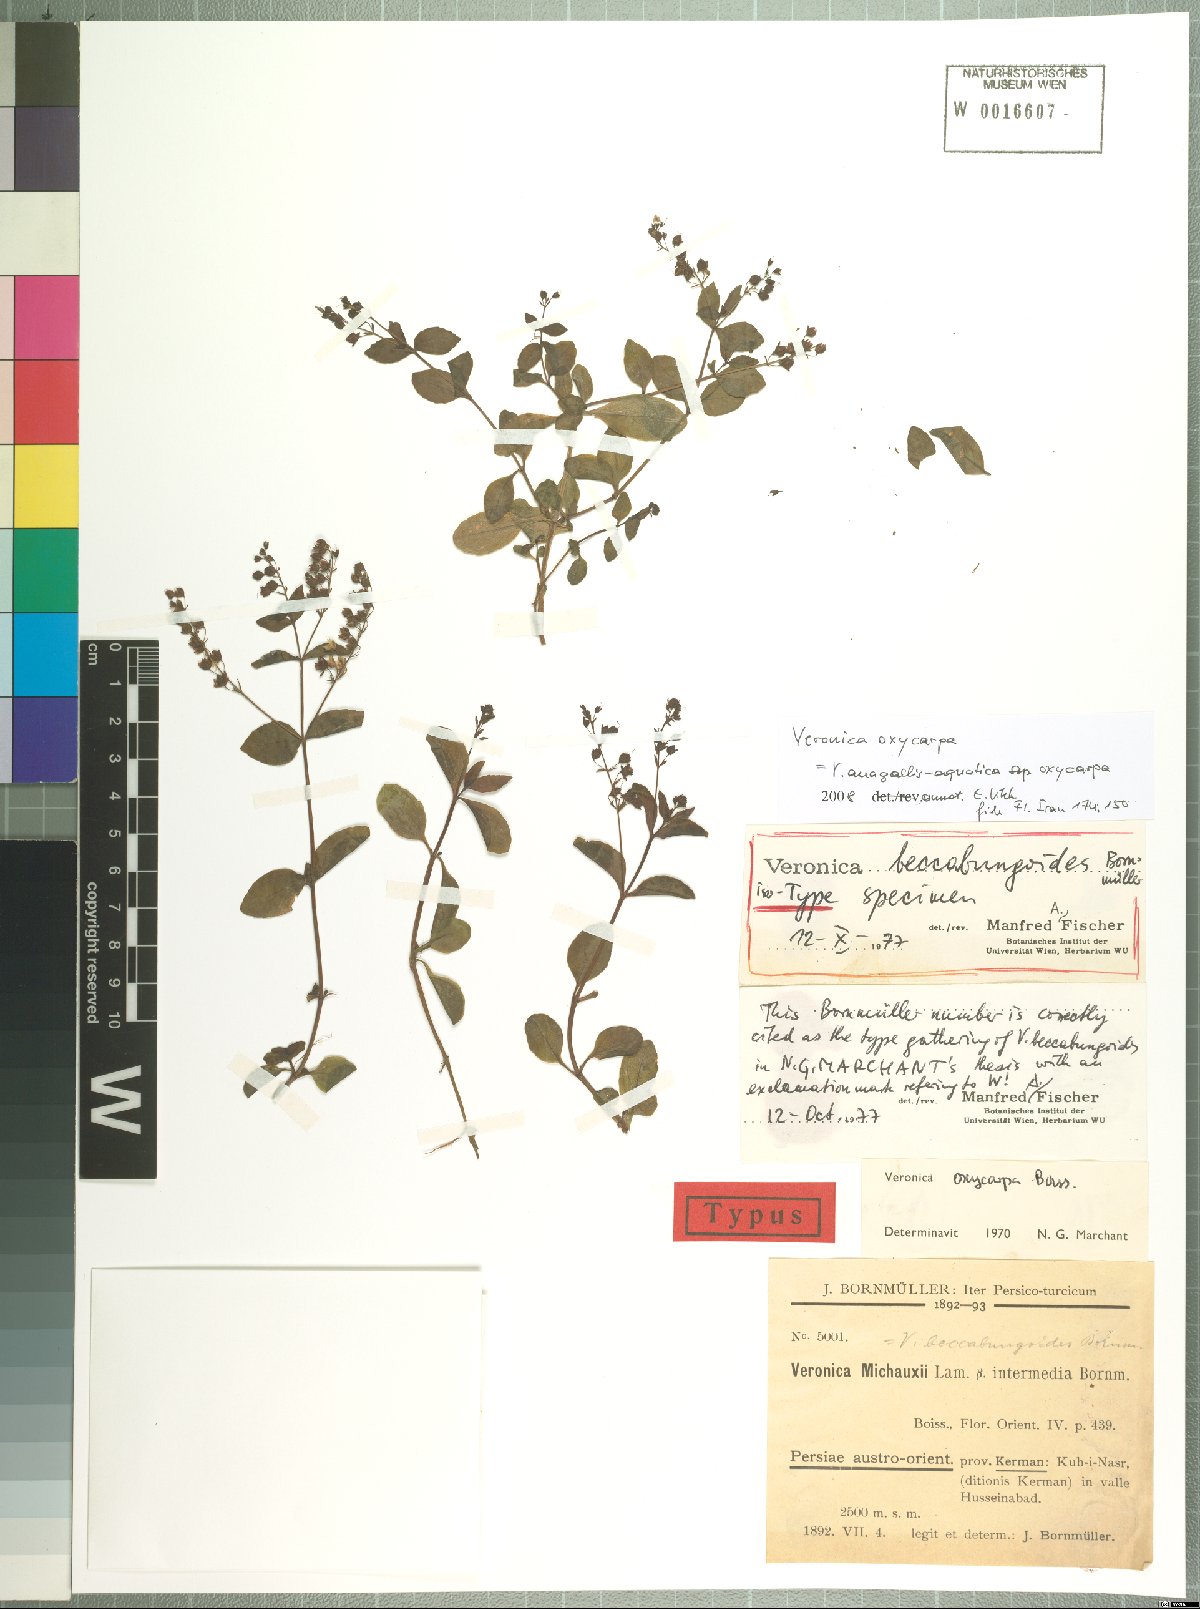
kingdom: Plantae
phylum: Tracheophyta
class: Magnoliopsida
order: Lamiales
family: Plantaginaceae
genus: Veronica
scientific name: Veronica oxycarpa
